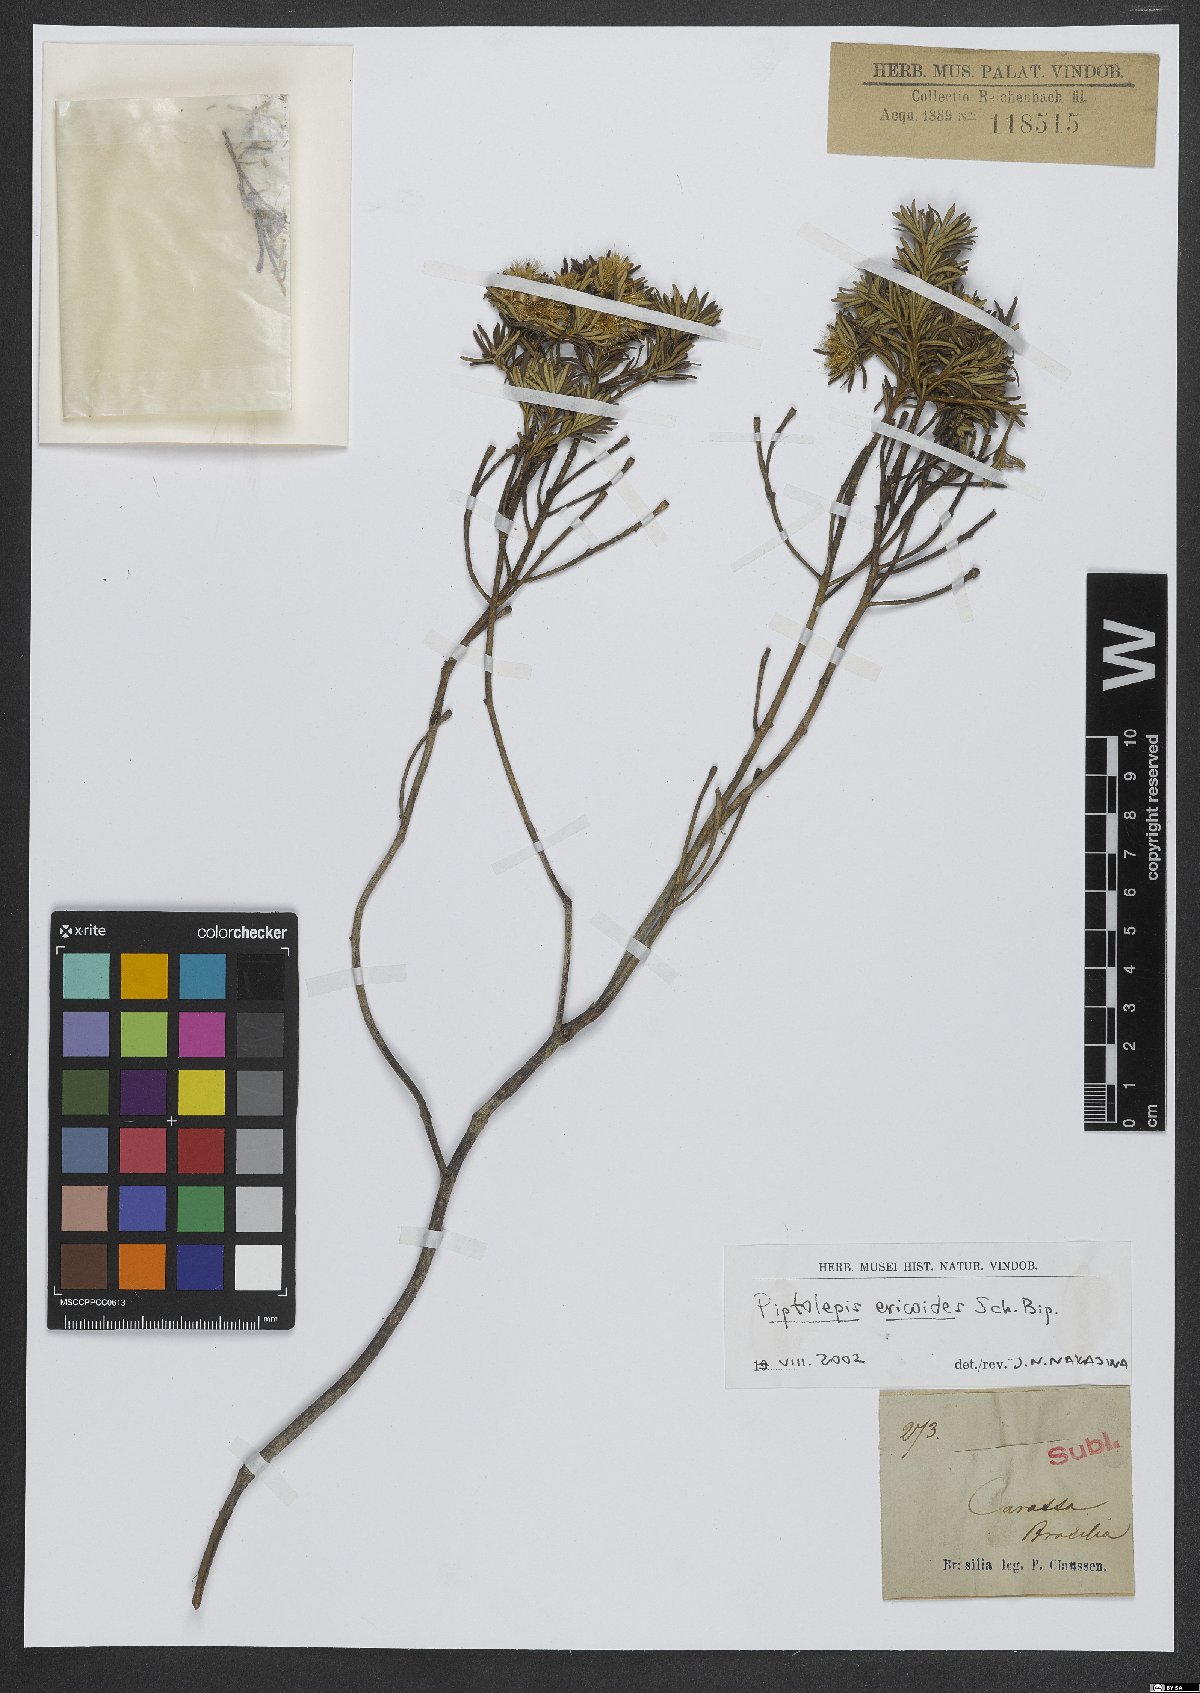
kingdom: Plantae
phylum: Tracheophyta
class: Magnoliopsida
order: Asterales
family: Asteraceae
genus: Piptolepis
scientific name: Piptolepis ericoides
